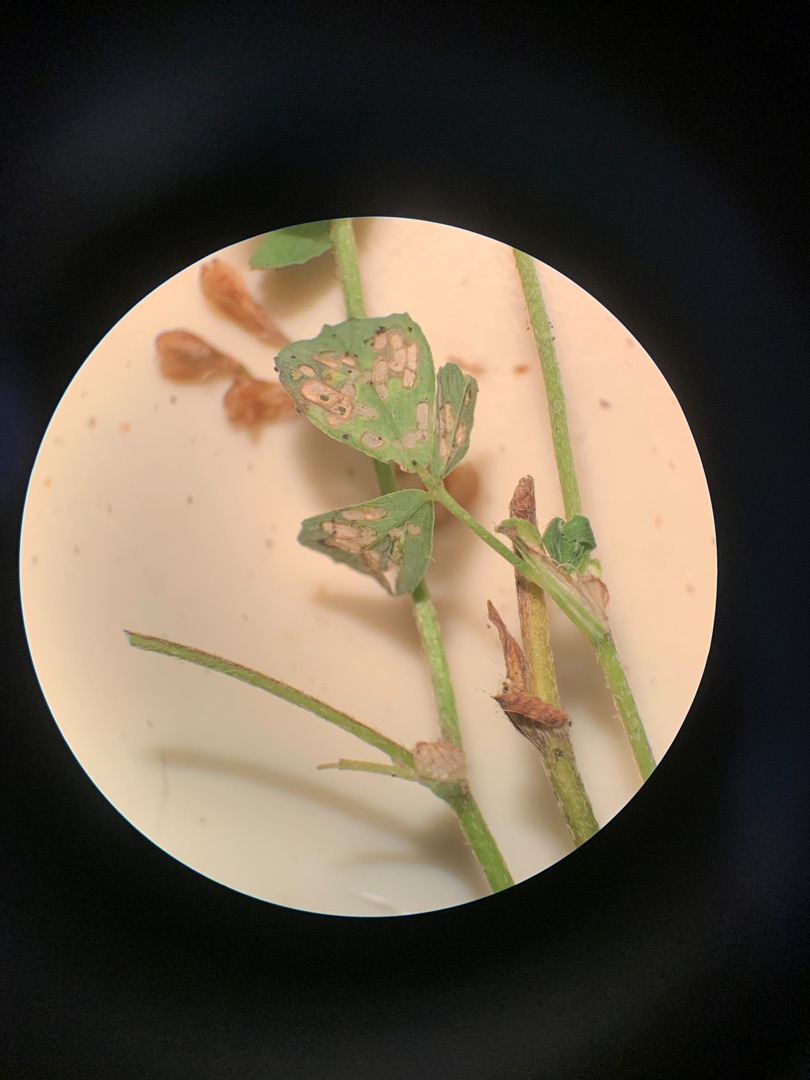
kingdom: Plantae
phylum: Tracheophyta
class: Magnoliopsida
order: Fabales
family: Fabaceae
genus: Trifolium
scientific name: Trifolium campestre
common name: Gul kløver
